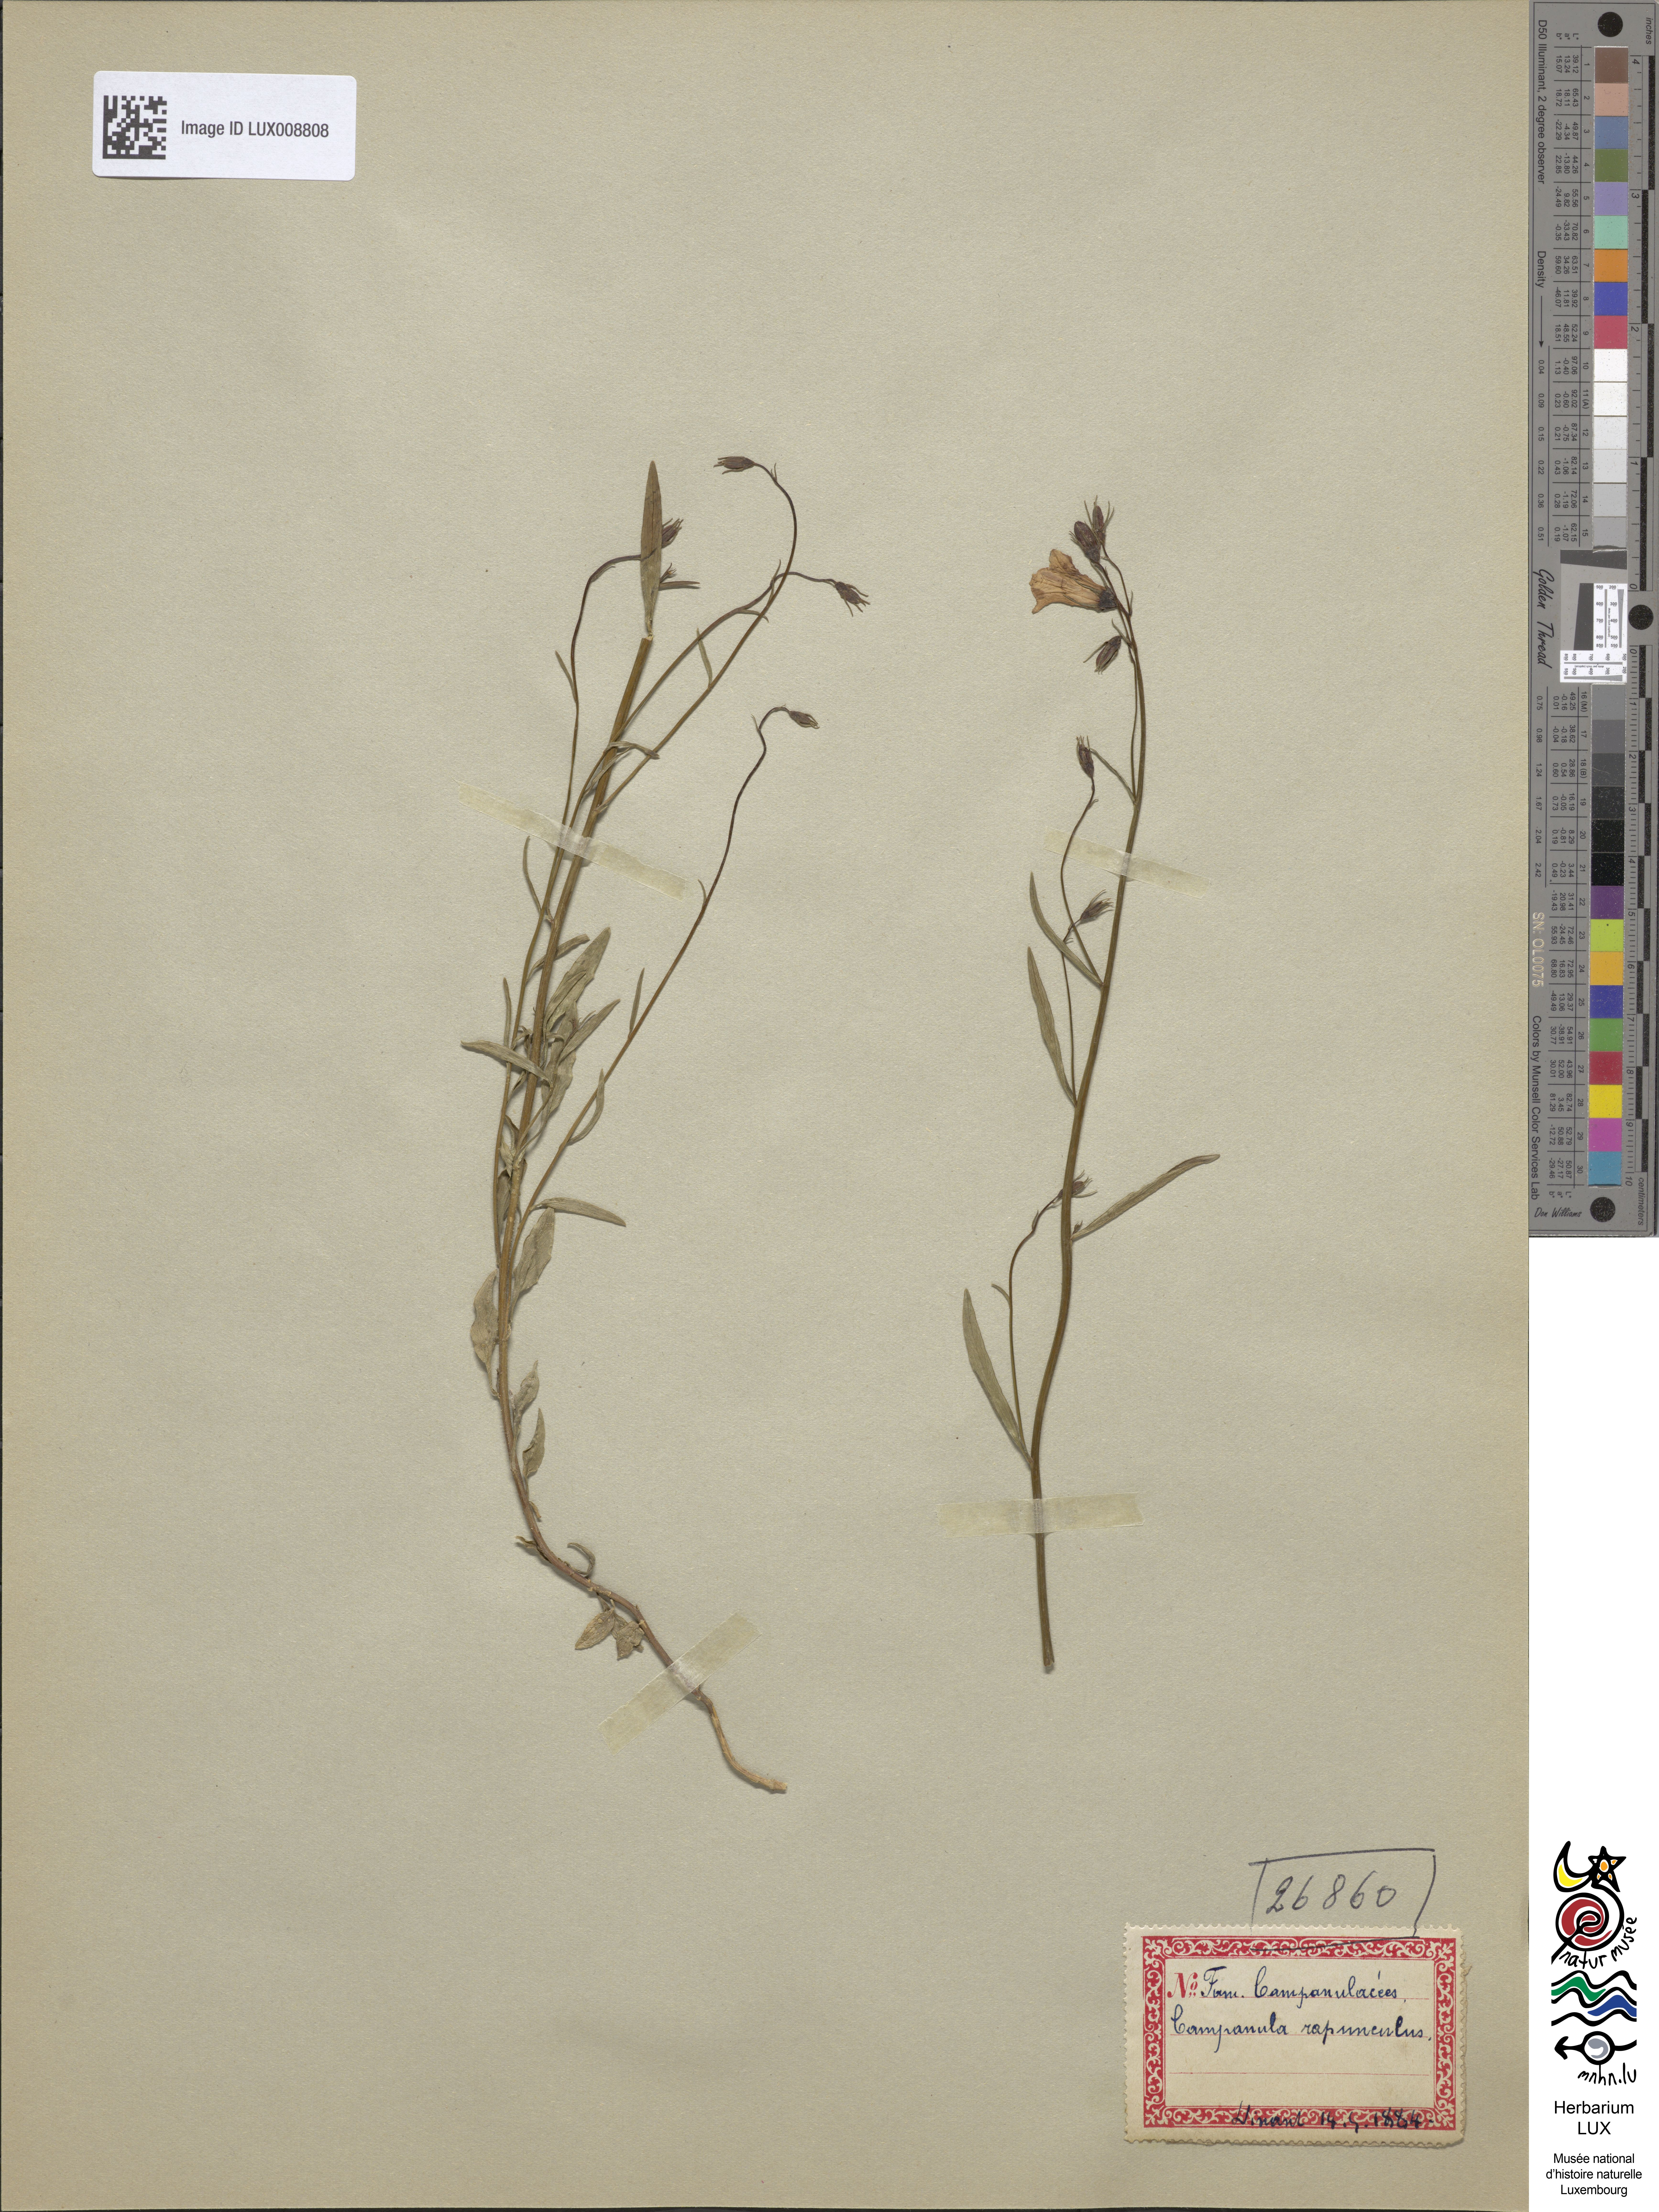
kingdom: Plantae
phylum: Tracheophyta
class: Magnoliopsida
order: Asterales
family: Campanulaceae
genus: Campanula
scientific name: Campanula rapunculus
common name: Rampion bellflower
